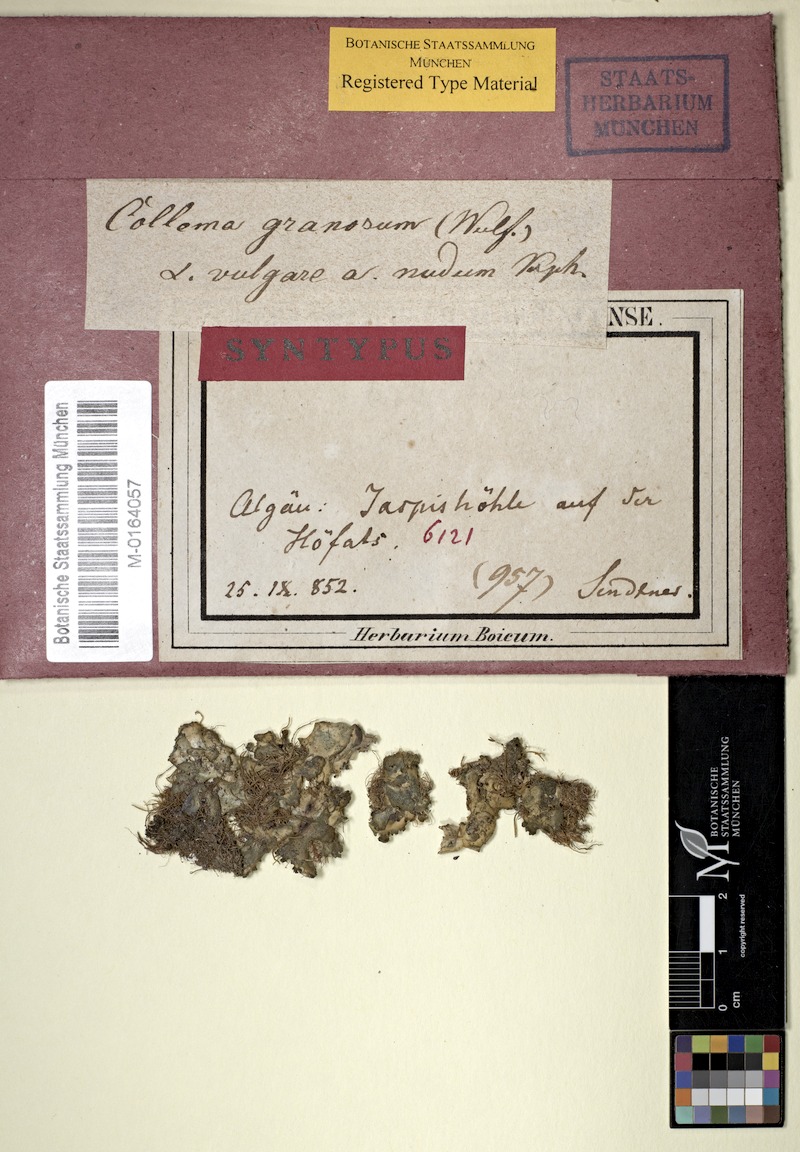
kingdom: Fungi
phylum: Ascomycota
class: Lecanoromycetes
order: Peltigerales
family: Collemataceae
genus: Lathagrium
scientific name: Lathagrium auriforme
